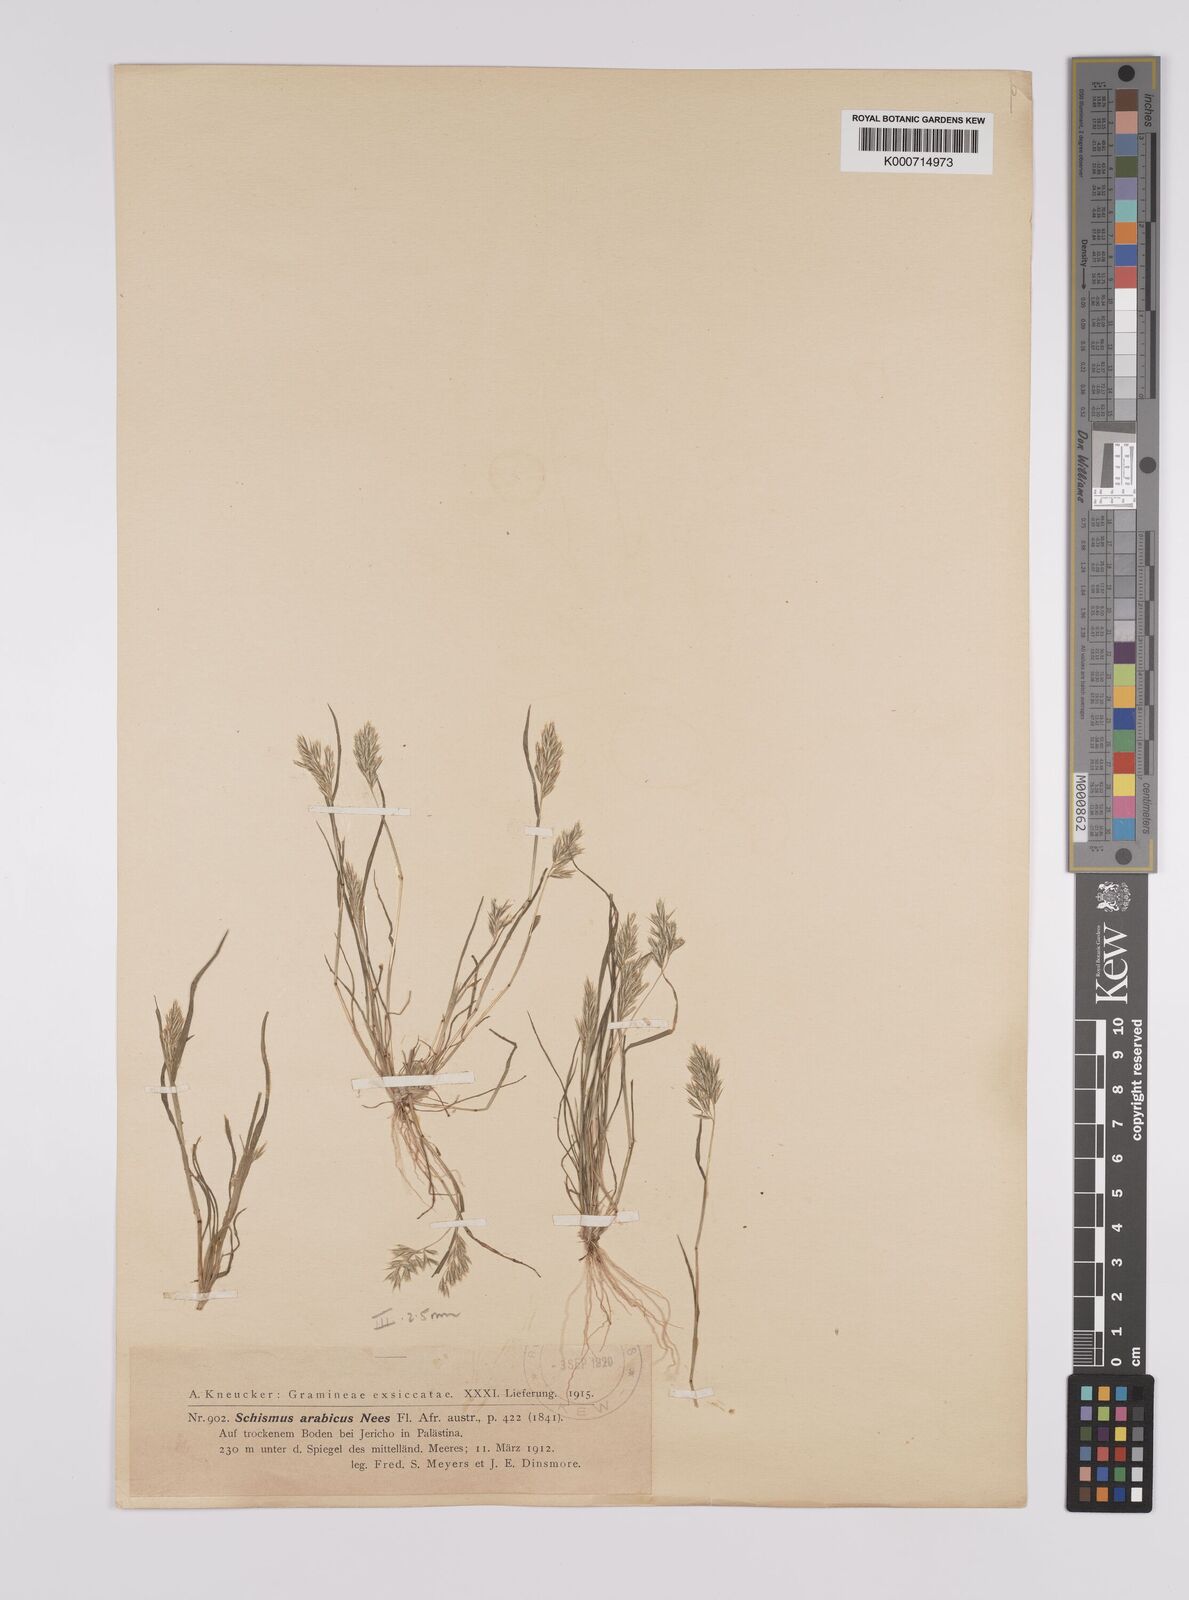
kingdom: Plantae
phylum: Tracheophyta
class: Liliopsida
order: Poales
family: Poaceae
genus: Schismus
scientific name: Schismus arabicus
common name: Arabian schismus
